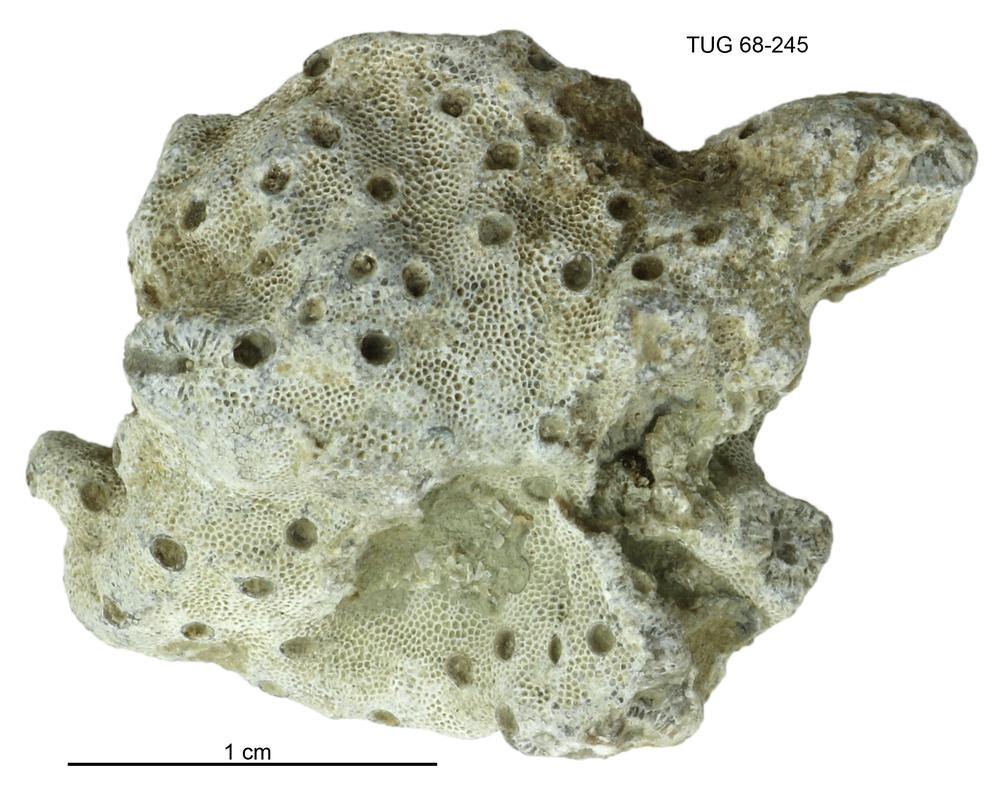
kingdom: Animalia
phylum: Bryozoa
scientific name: Bryozoa
